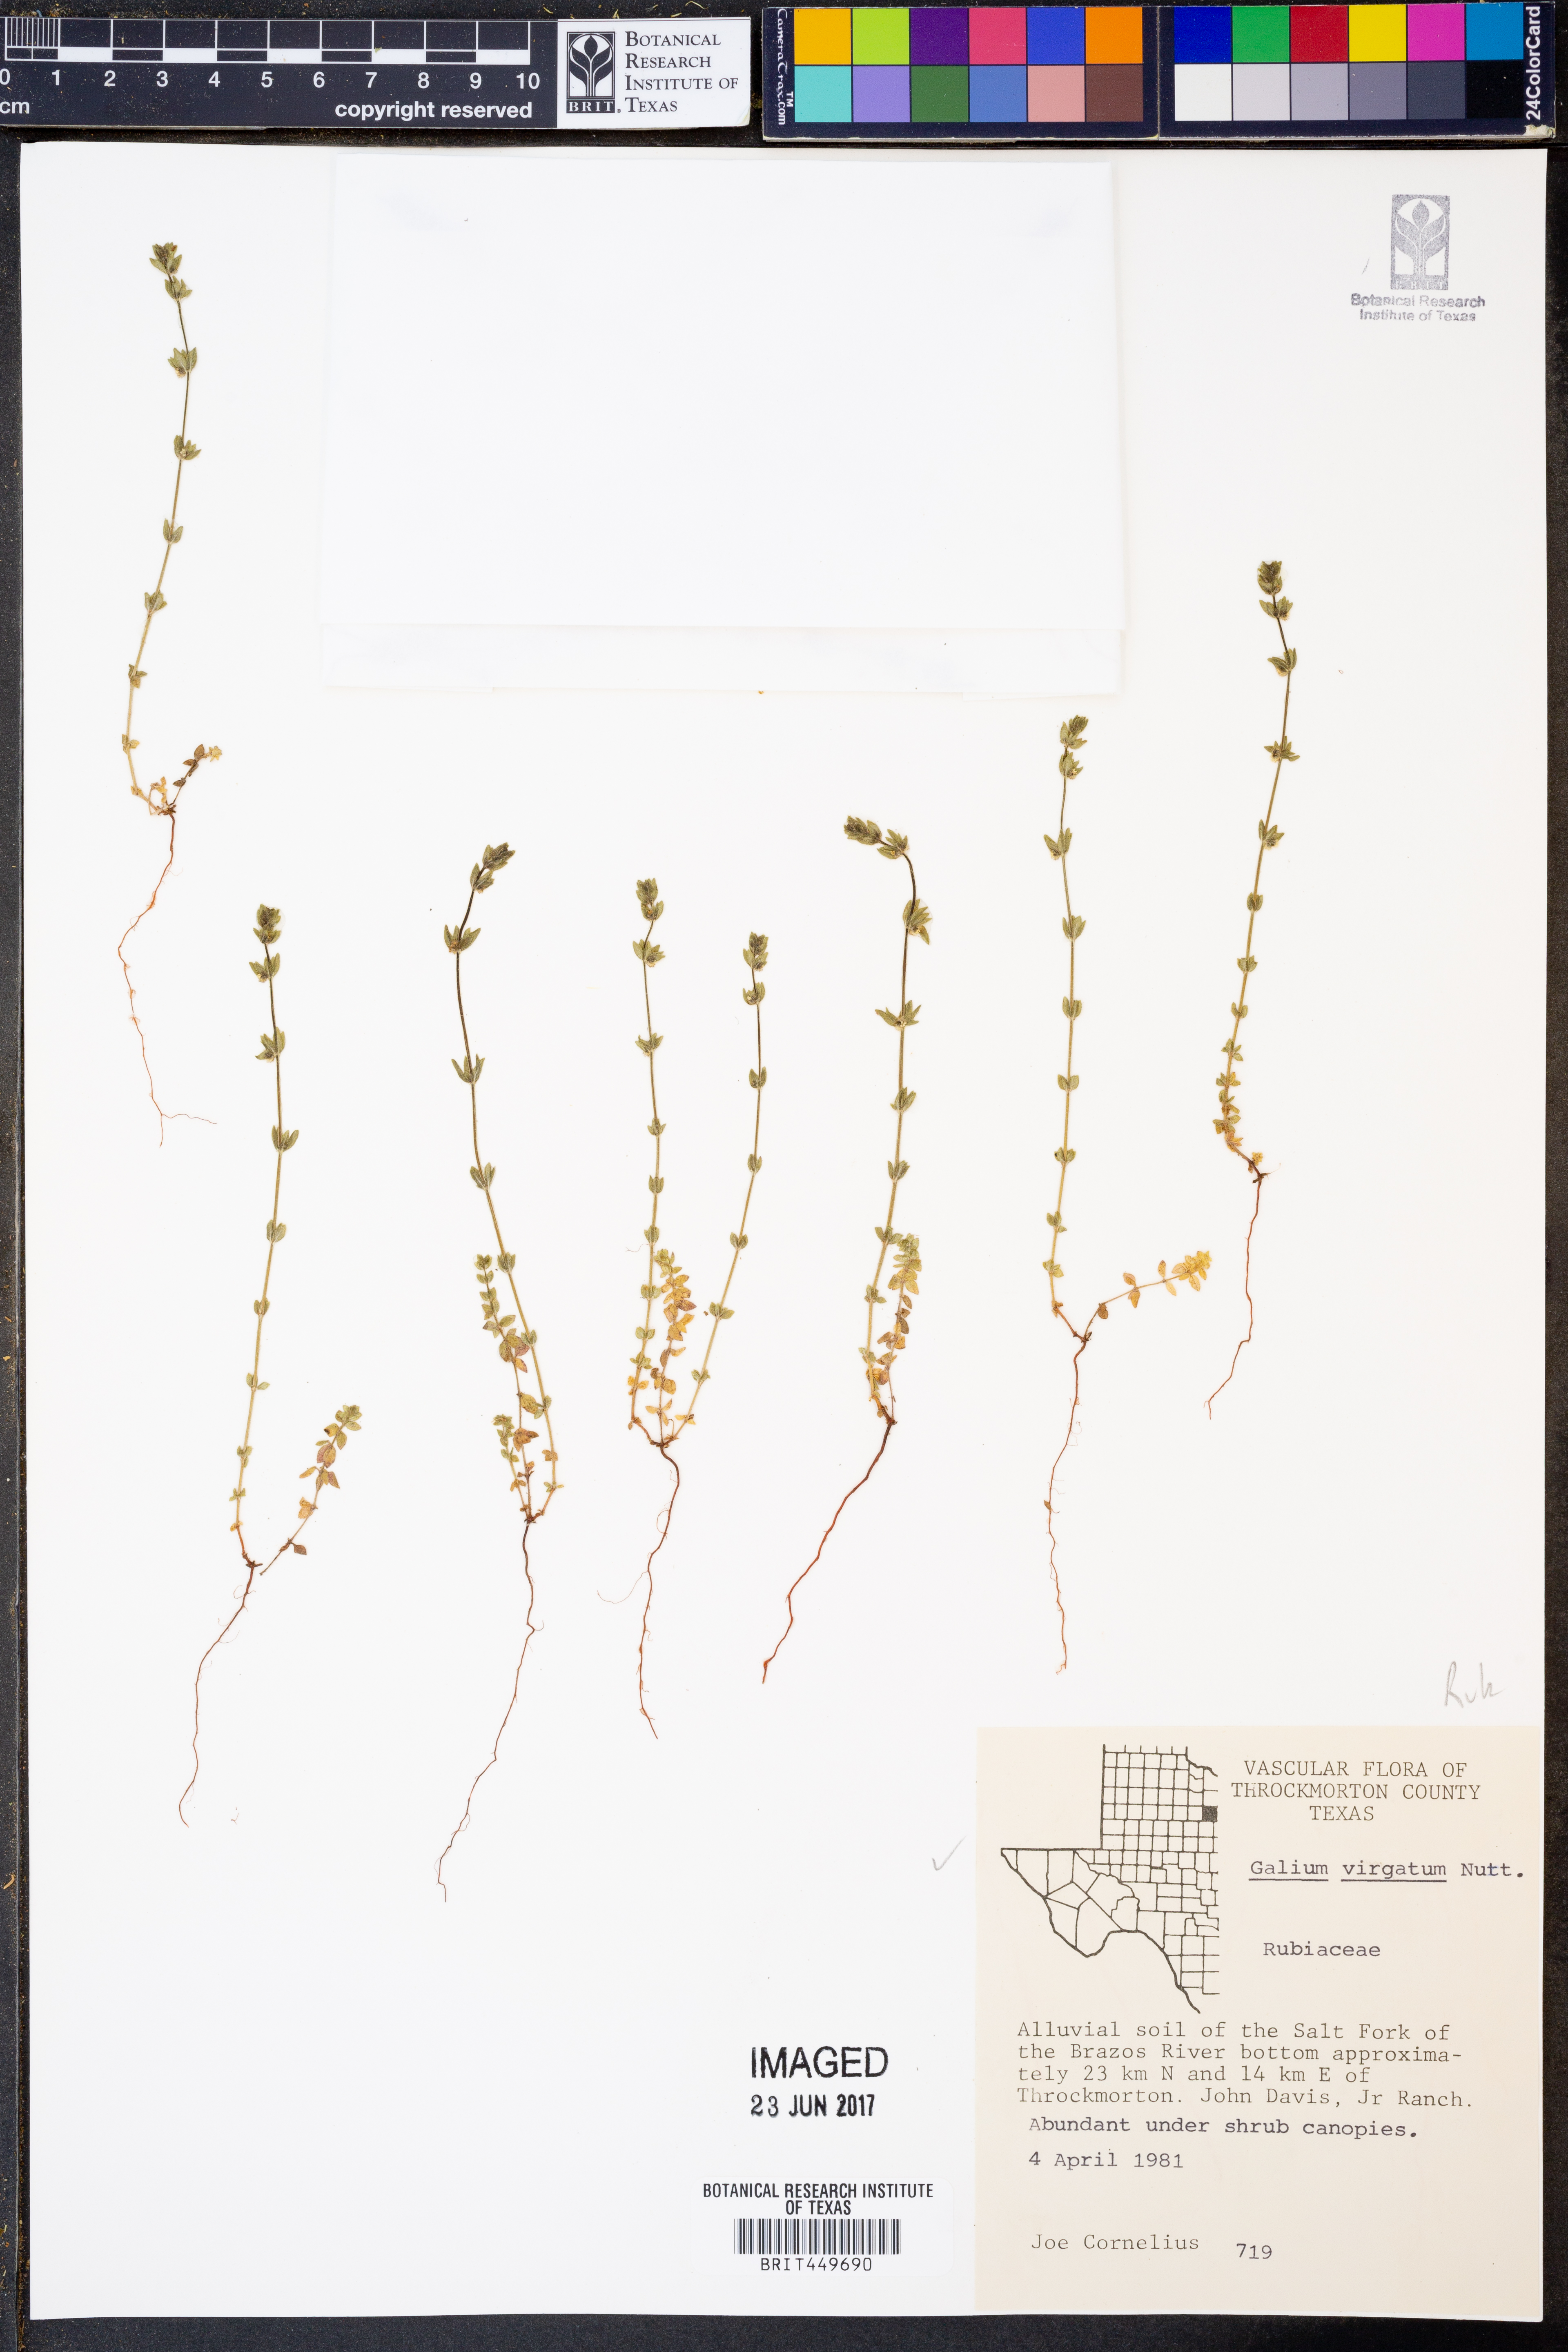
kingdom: Plantae
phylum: Tracheophyta
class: Magnoliopsida
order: Gentianales
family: Rubiaceae
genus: Galium
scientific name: Galium virgatum
